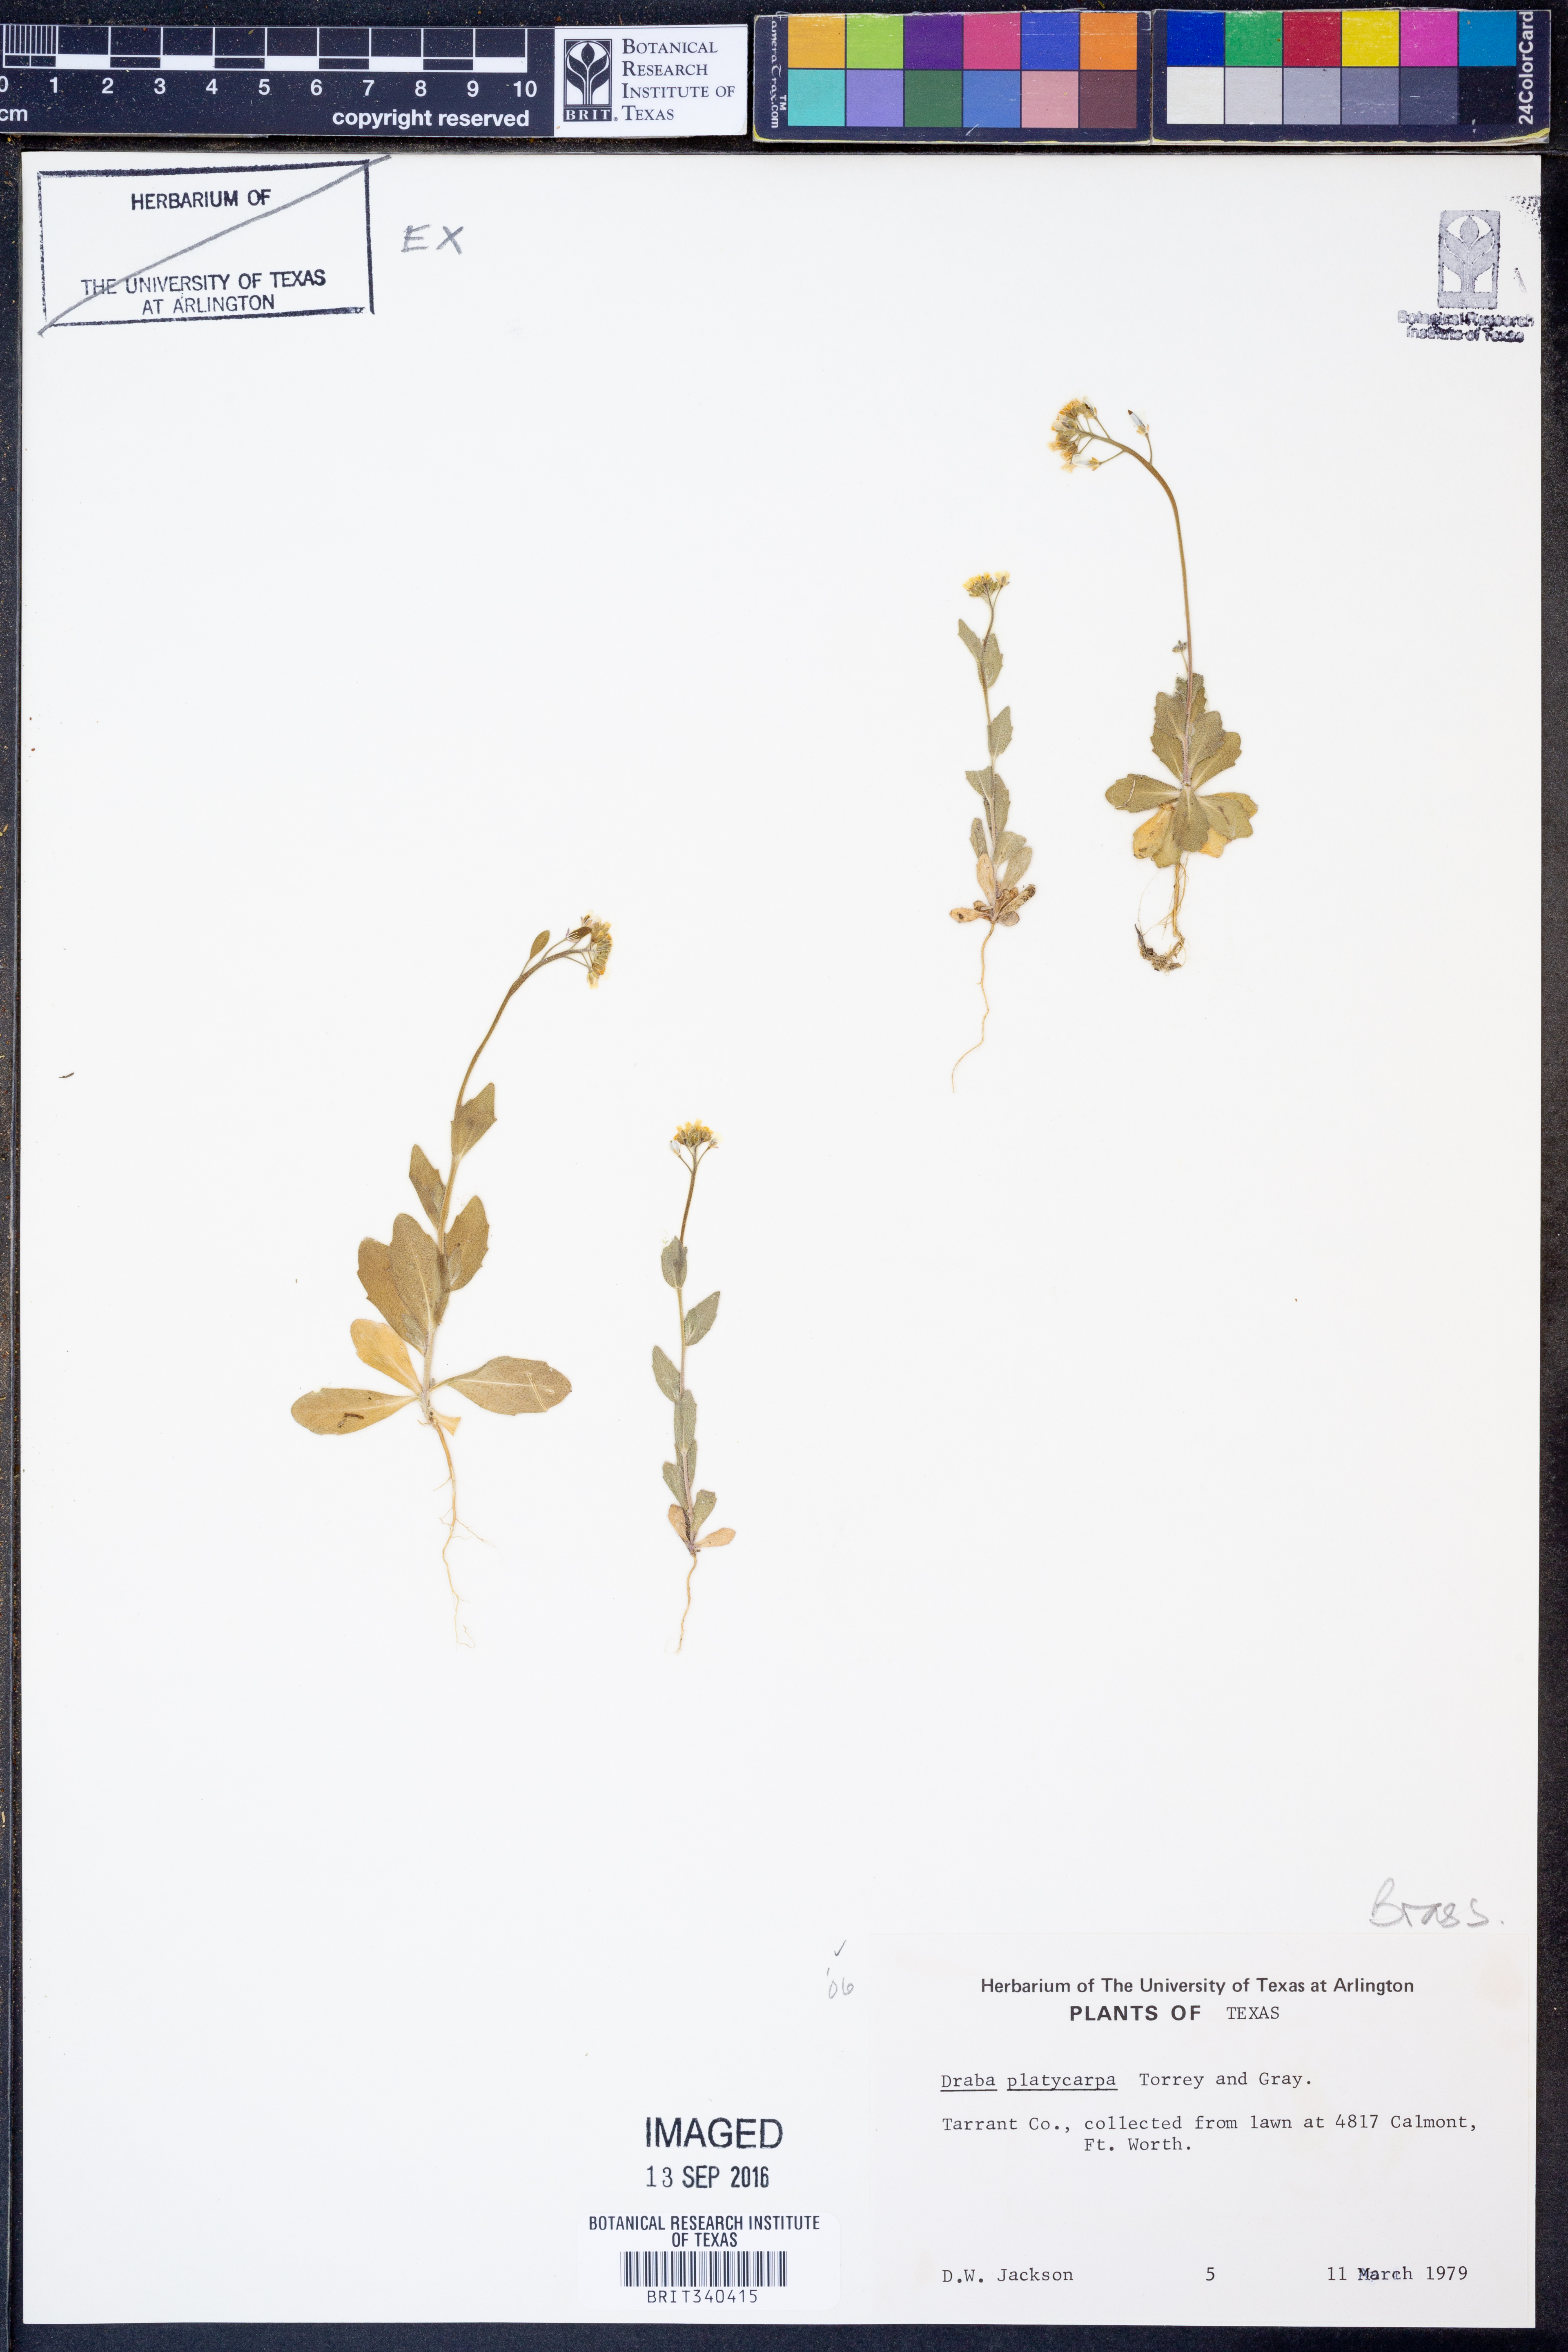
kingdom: Plantae
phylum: Tracheophyta
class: Magnoliopsida
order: Brassicales
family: Brassicaceae
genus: Tomostima
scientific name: Tomostima platycarpa
